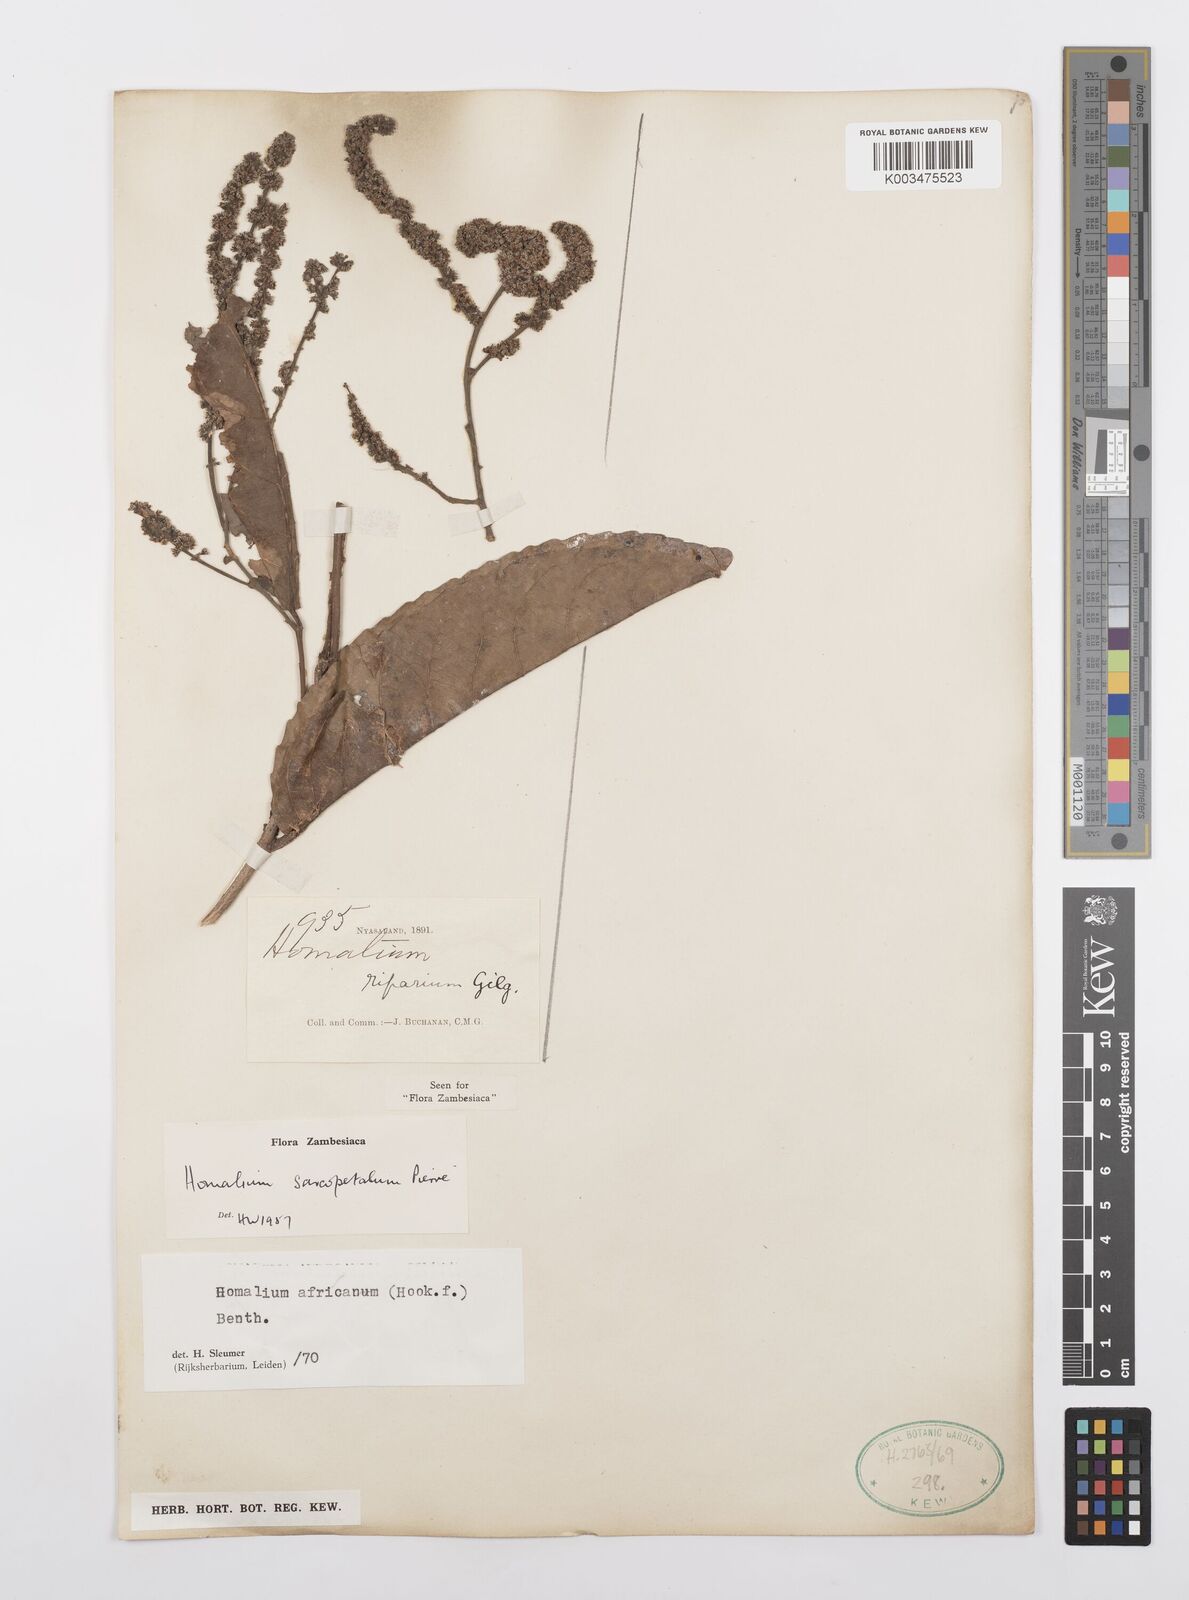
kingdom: Plantae
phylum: Tracheophyta
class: Magnoliopsida
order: Malpighiales
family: Salicaceae
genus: Homalium
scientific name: Homalium africanum
